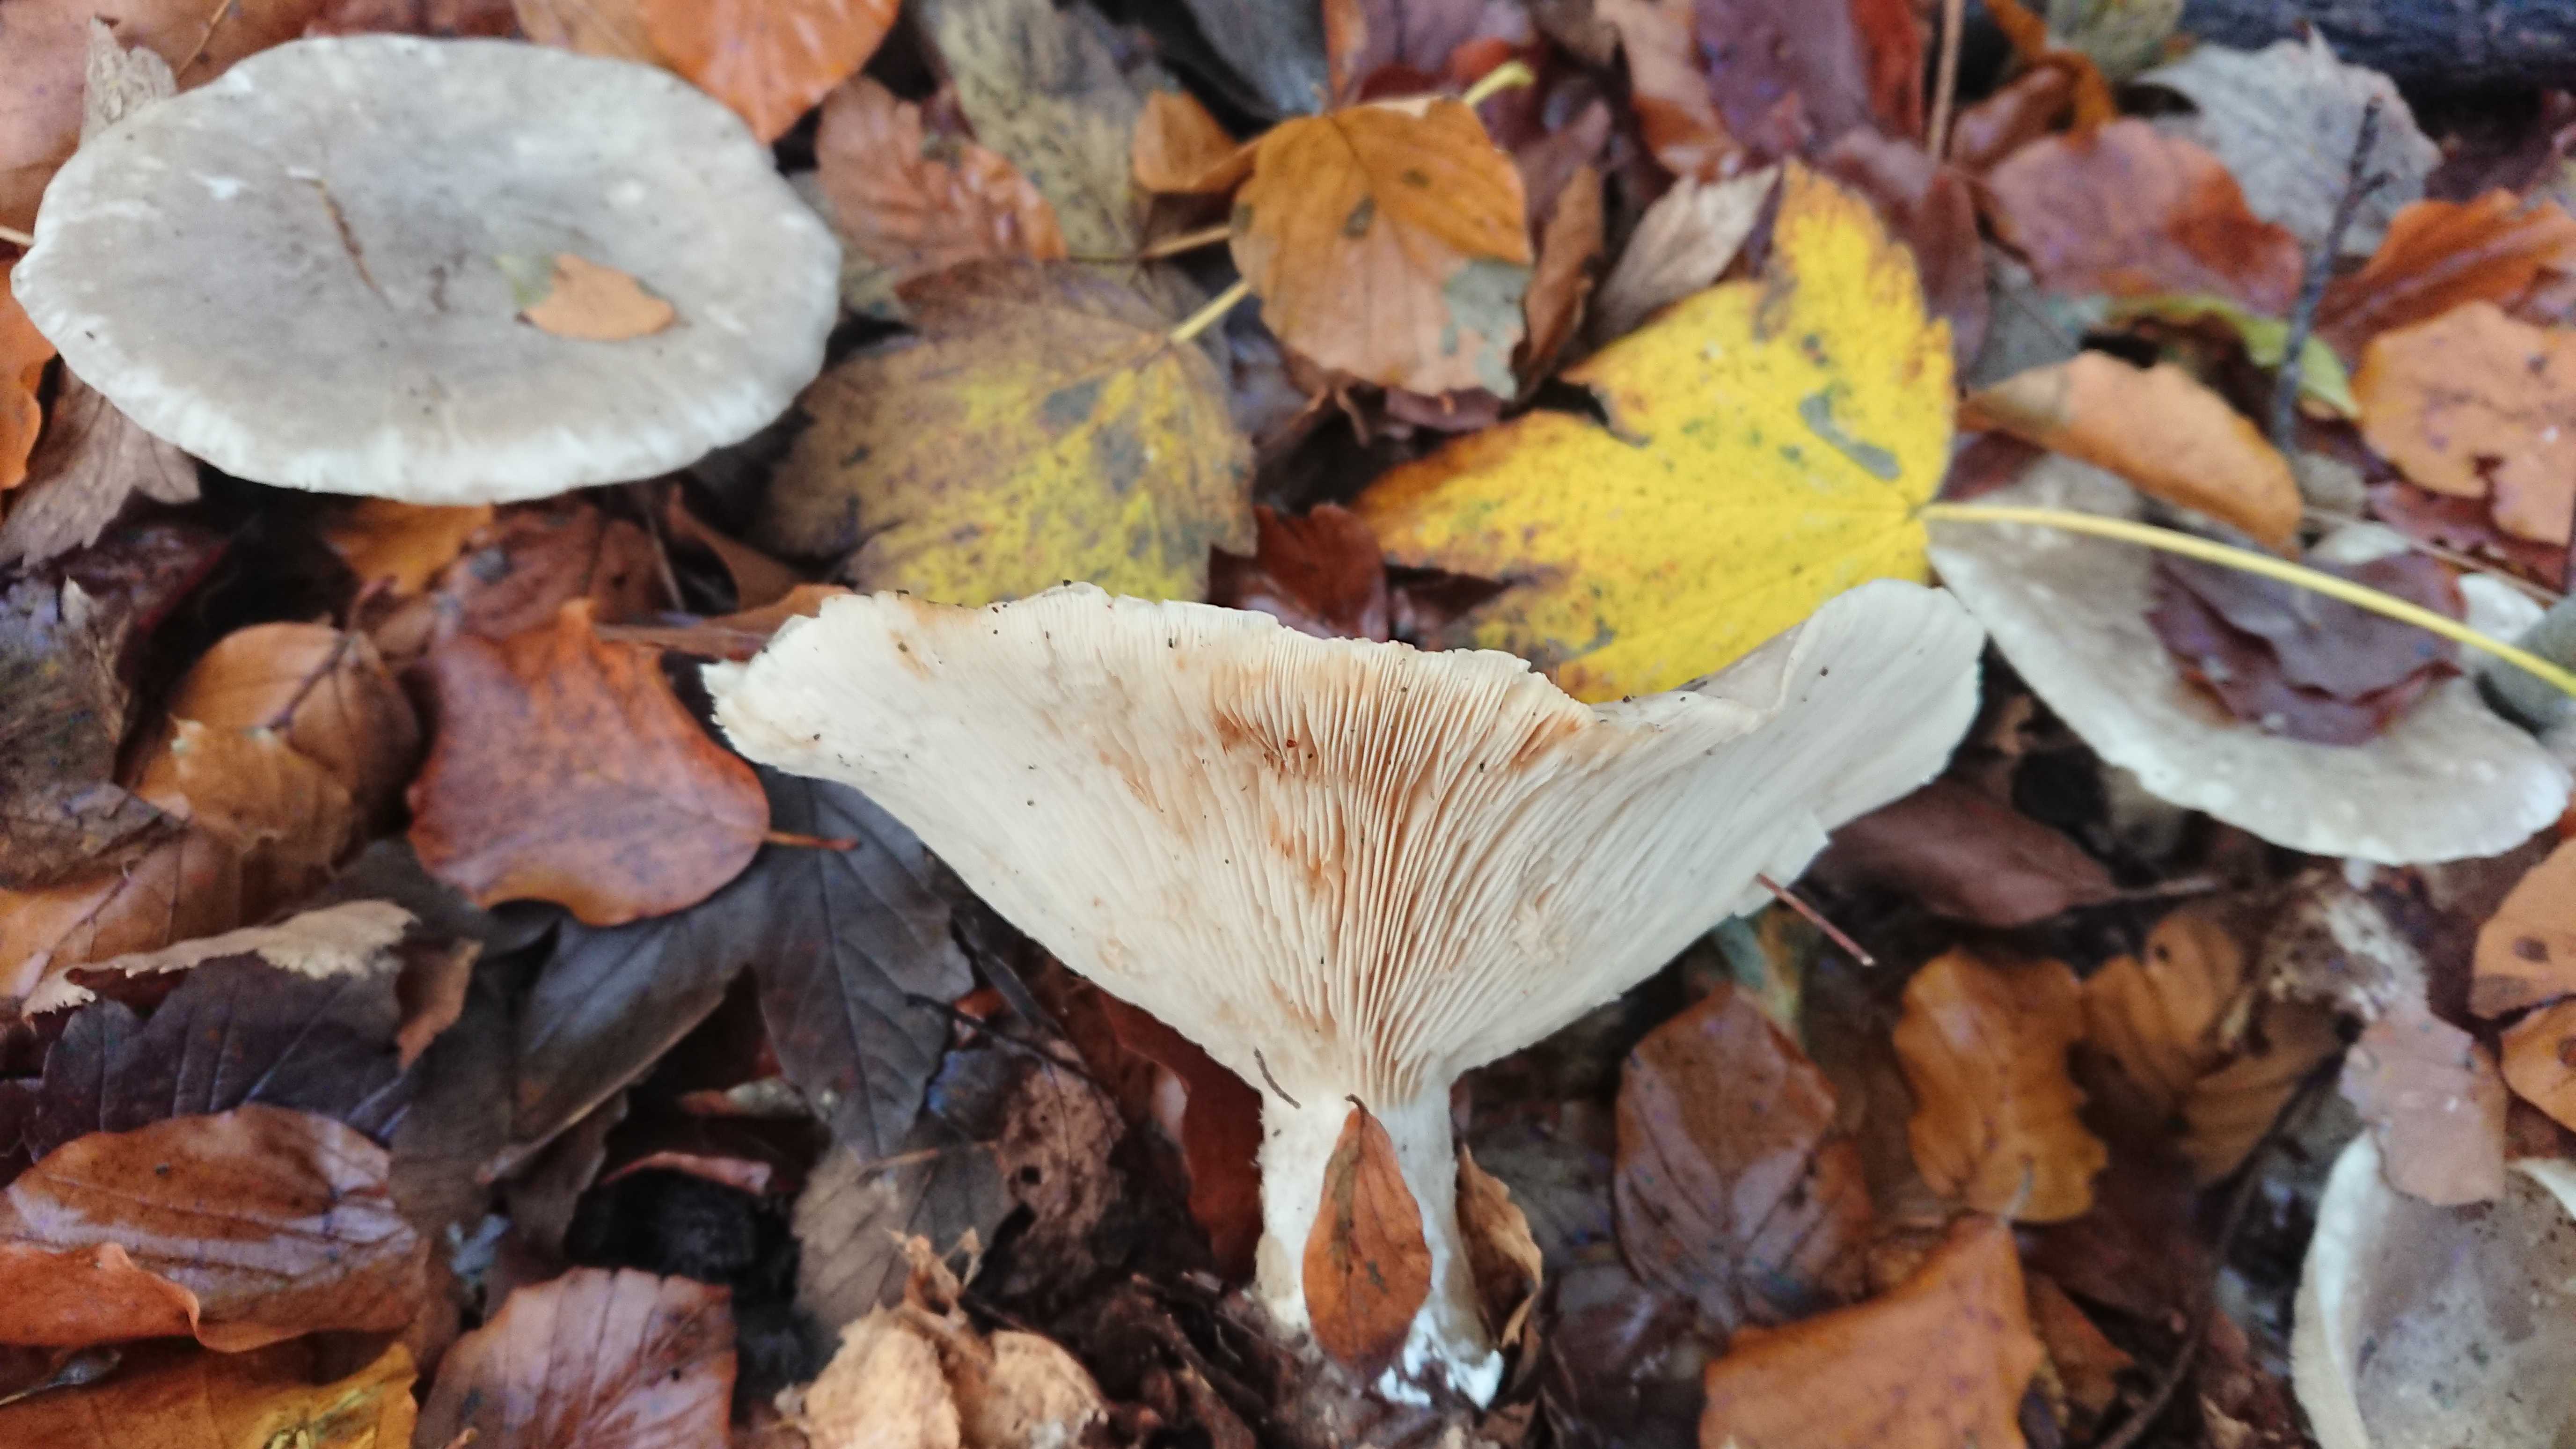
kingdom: Fungi
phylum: Basidiomycota
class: Agaricomycetes
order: Agaricales
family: Tricholomataceae
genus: Clitocybe
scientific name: Clitocybe nebularis
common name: tåge-tragthat
